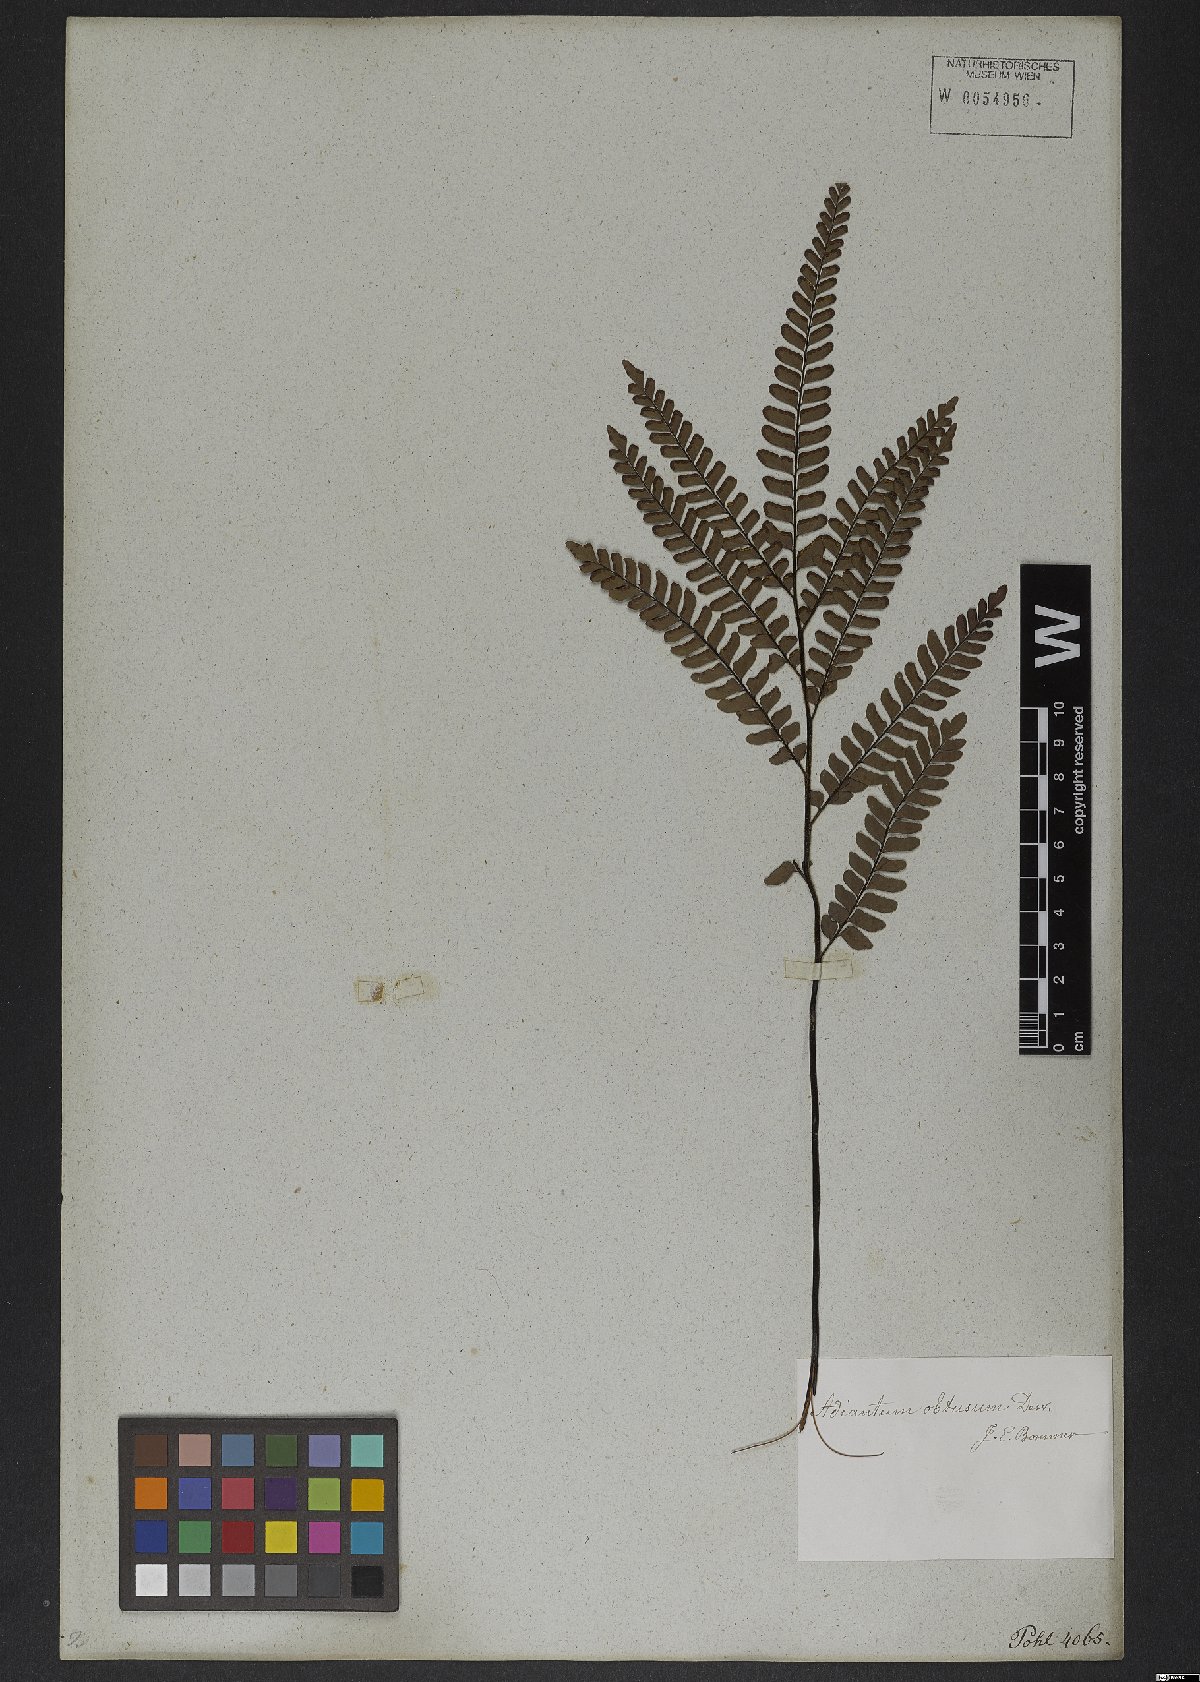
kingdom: Plantae
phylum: Tracheophyta
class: Polypodiopsida
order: Polypodiales
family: Pteridaceae
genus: Adiantum
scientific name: Adiantum serratodentatum
